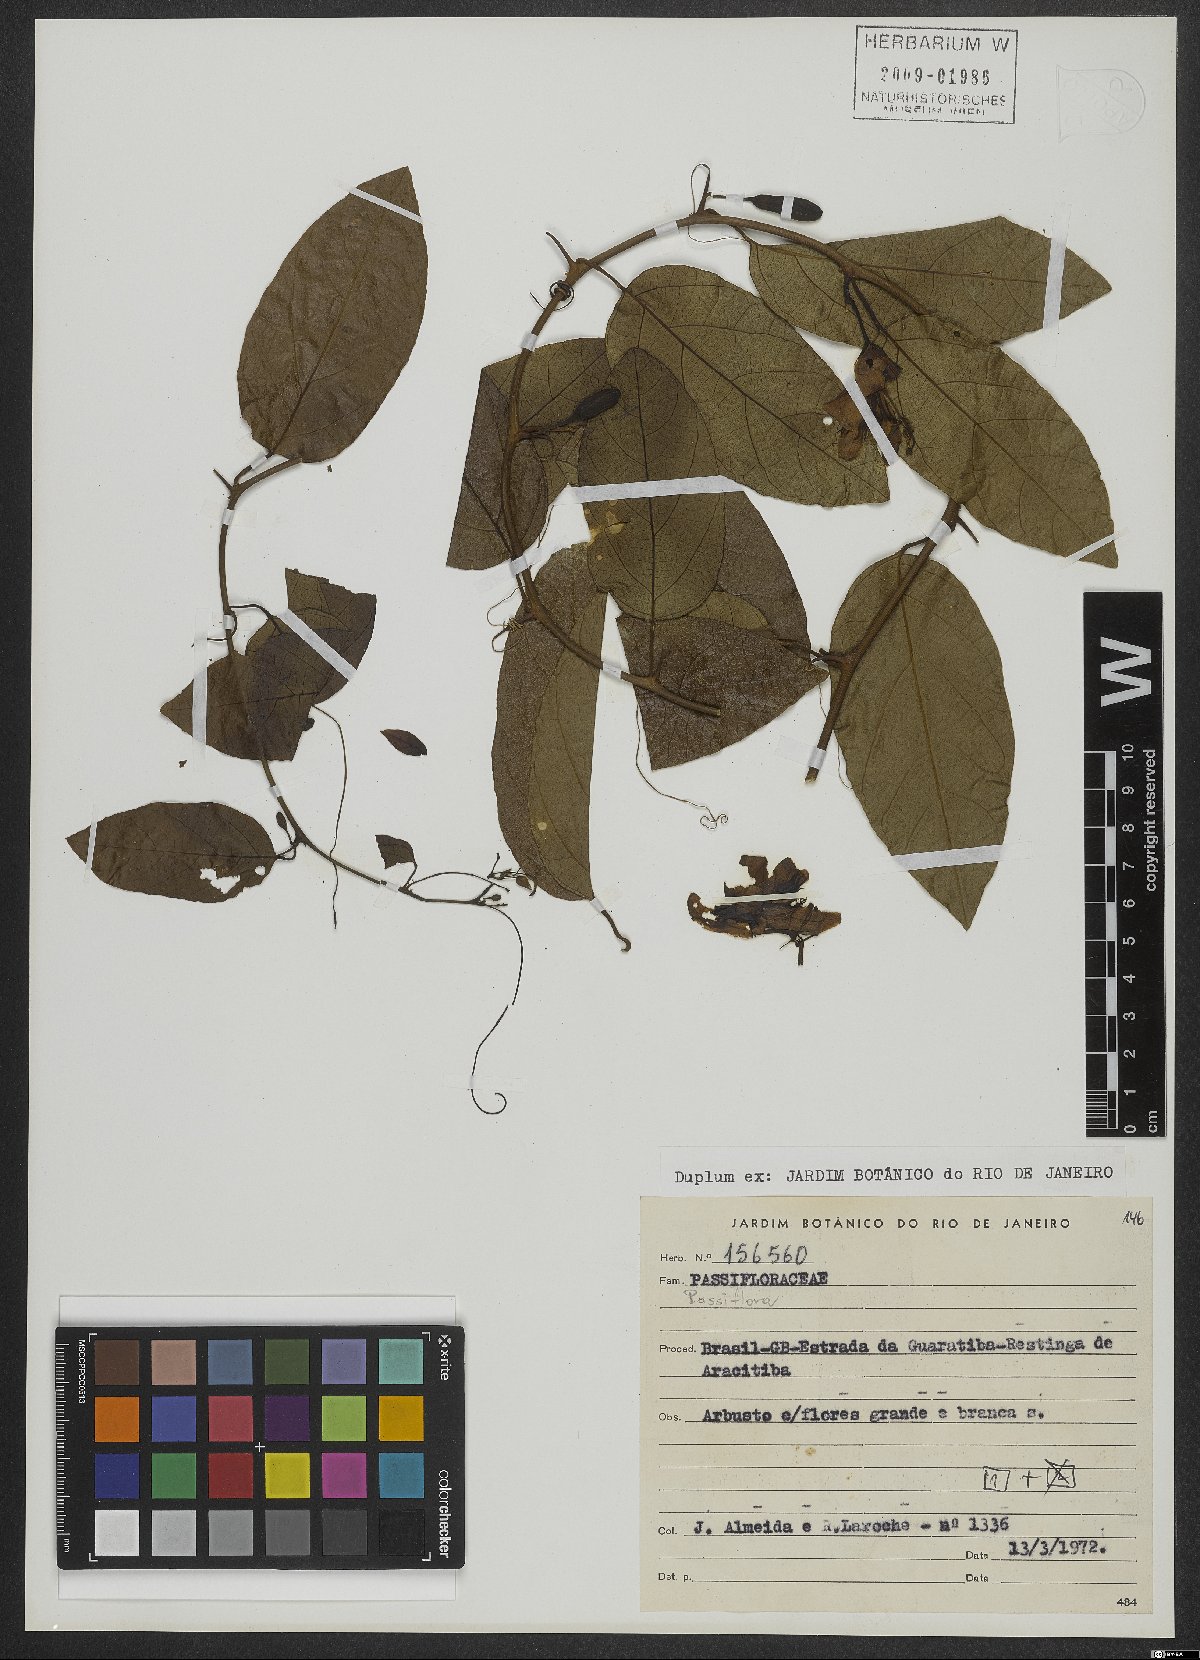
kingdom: Plantae
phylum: Tracheophyta
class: Magnoliopsida
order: Malpighiales
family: Passifloraceae
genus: Passiflora
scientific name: Passiflora
